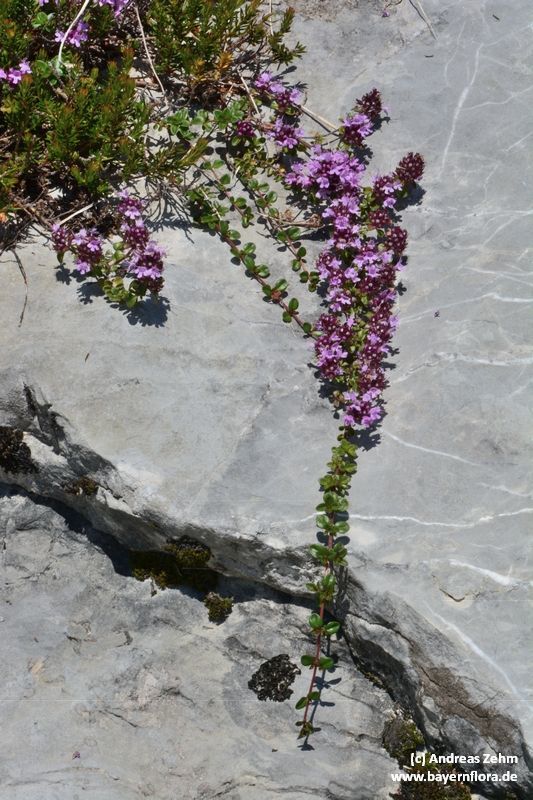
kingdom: Plantae
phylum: Tracheophyta
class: Magnoliopsida
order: Lamiales
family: Lamiaceae
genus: Thymus
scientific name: Thymus praecox
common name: Wild thyme
